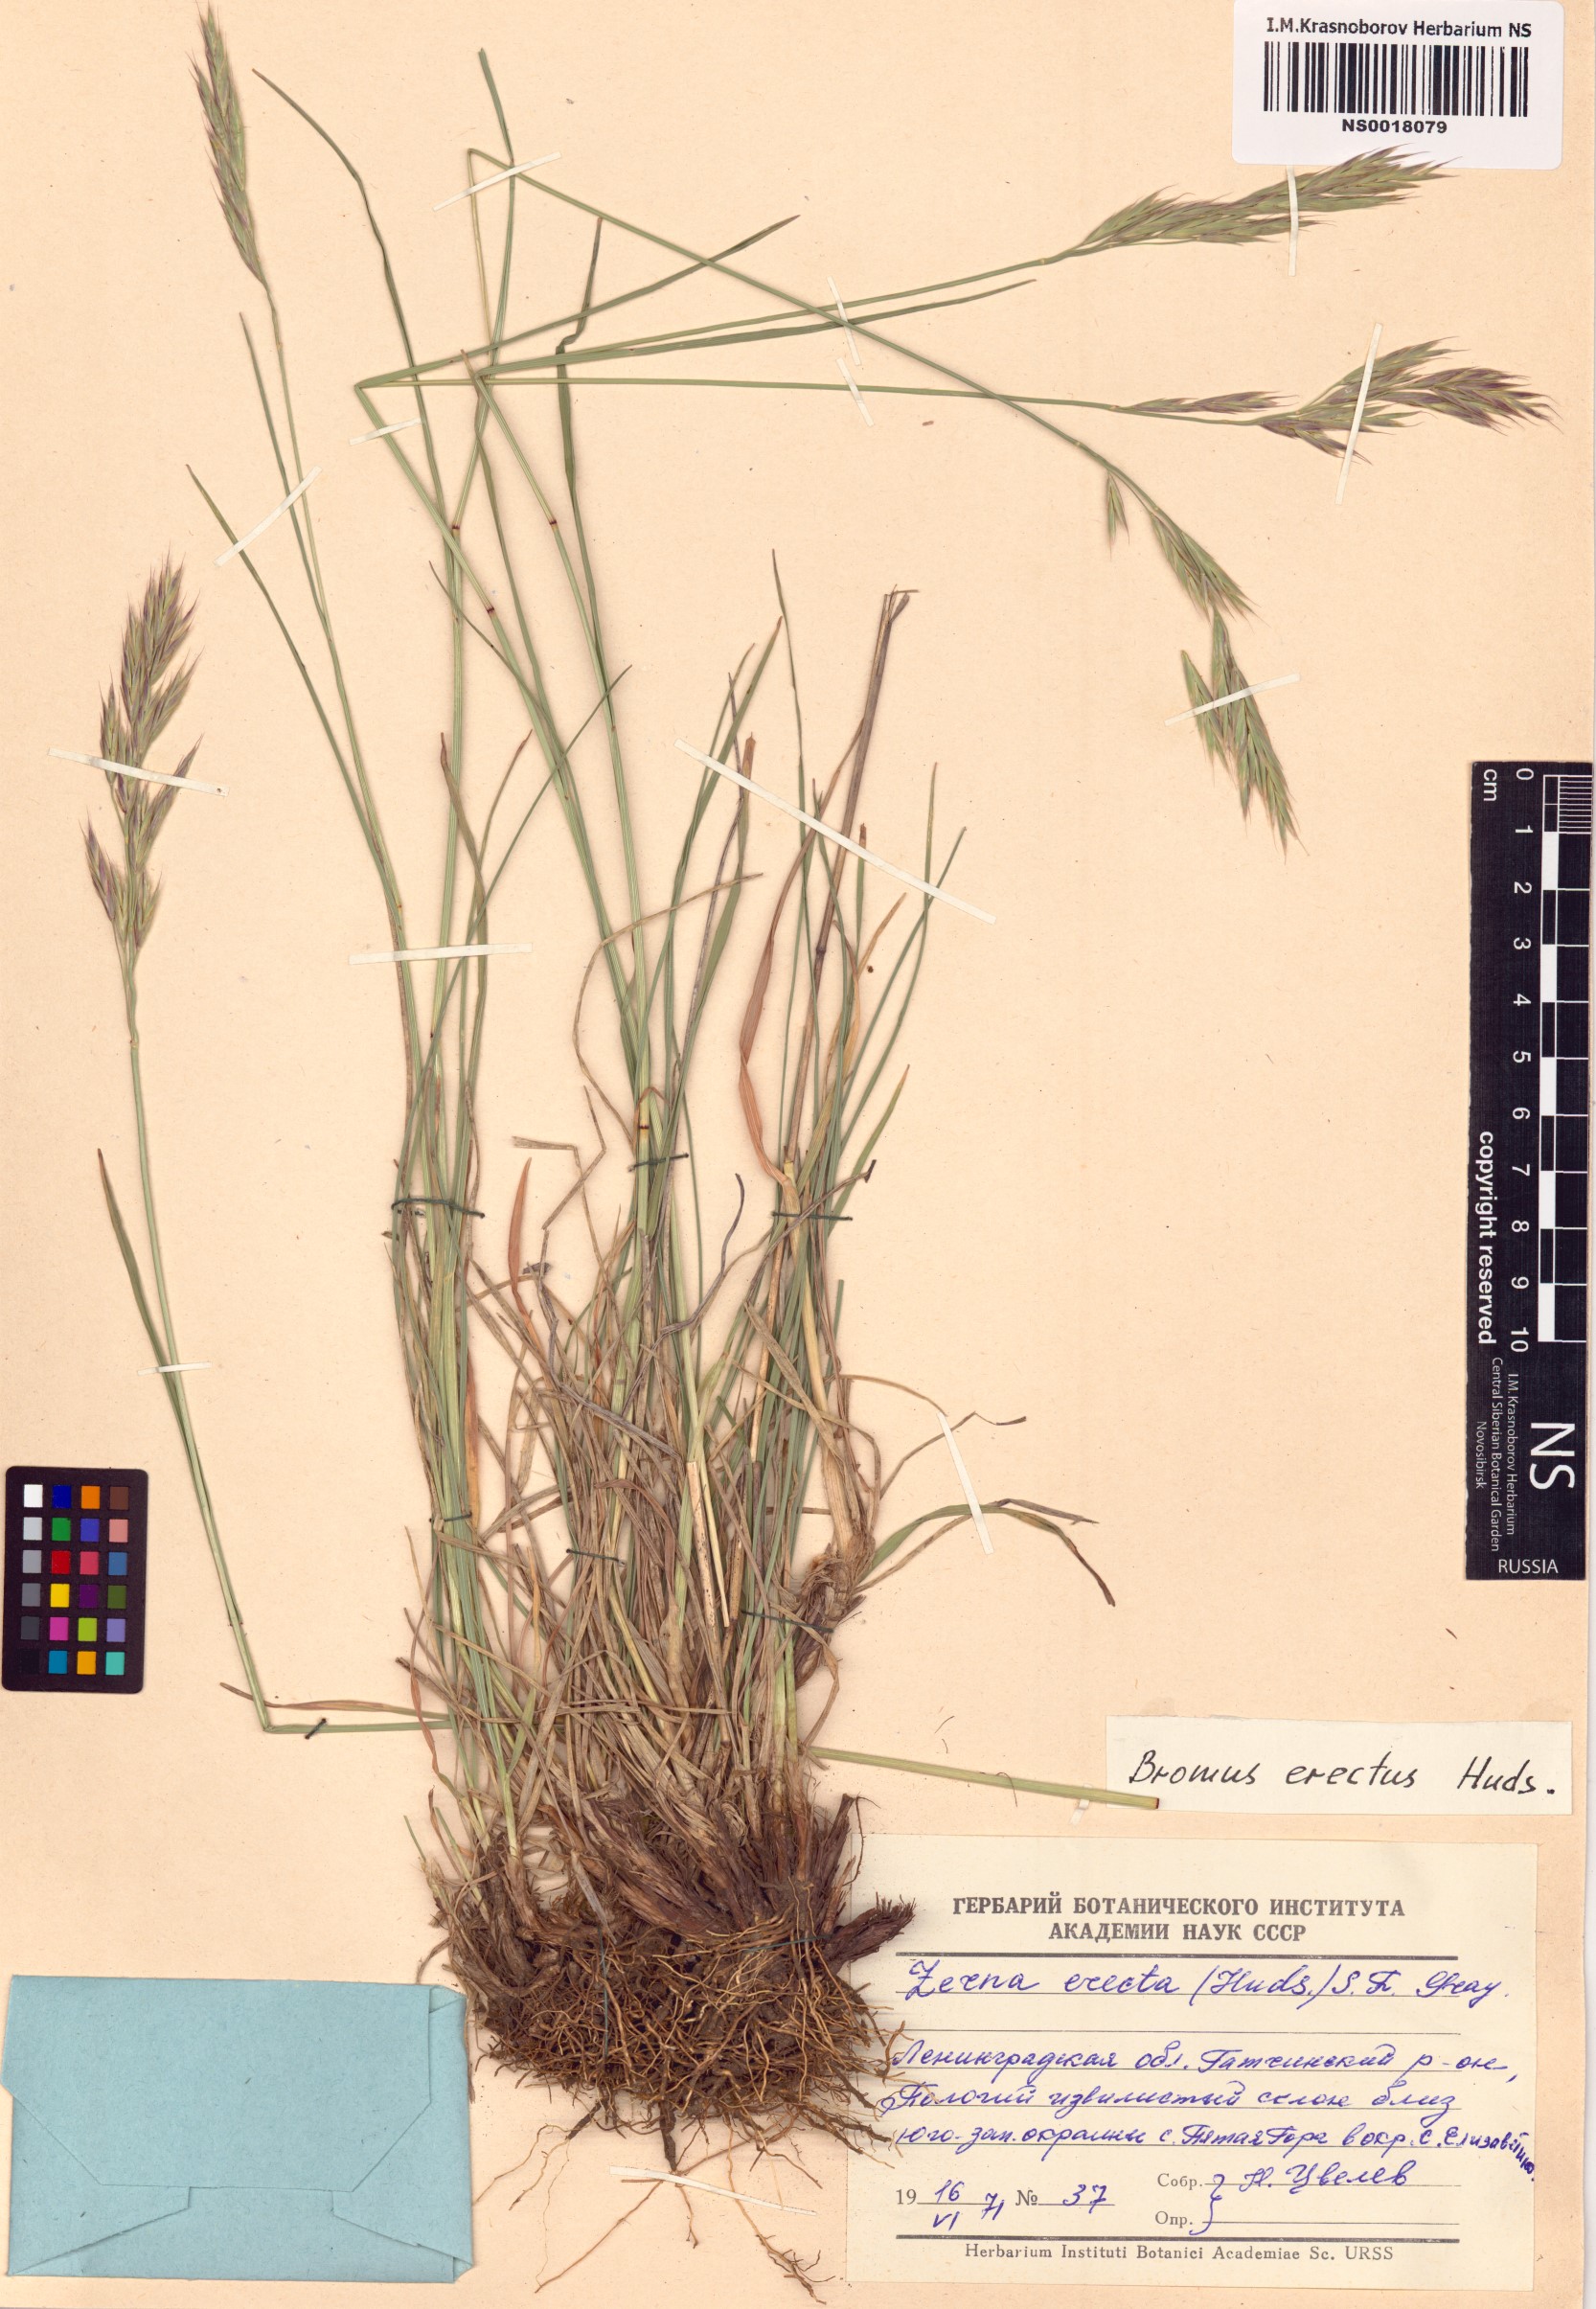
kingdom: Plantae
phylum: Tracheophyta
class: Liliopsida
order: Poales
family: Poaceae
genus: Bromus
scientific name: Bromus erectus
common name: Erect brome
